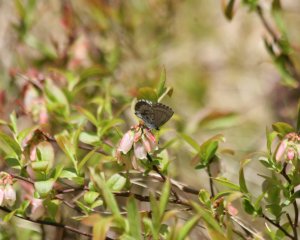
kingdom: Animalia
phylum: Arthropoda
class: Insecta
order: Lepidoptera
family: Lycaenidae
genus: Celastrina
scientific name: Celastrina lucia
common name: Northern Spring Azure
